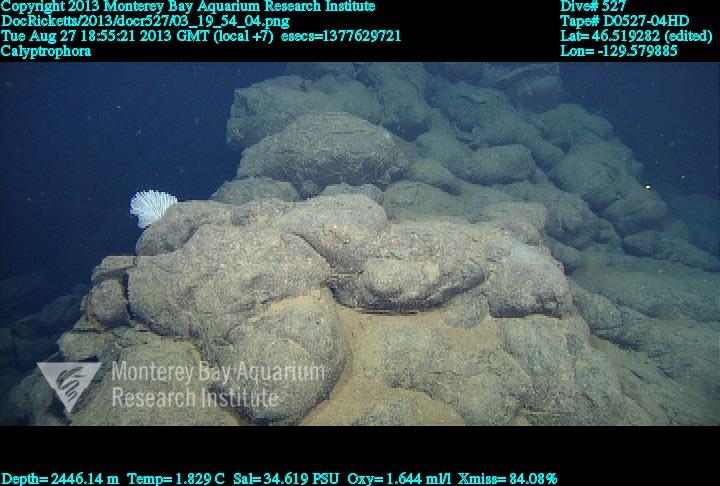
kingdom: Animalia
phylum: Cnidaria
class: Anthozoa
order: Scleralcyonacea
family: Primnoidae
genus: Calyptrophora
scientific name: Calyptrophora
